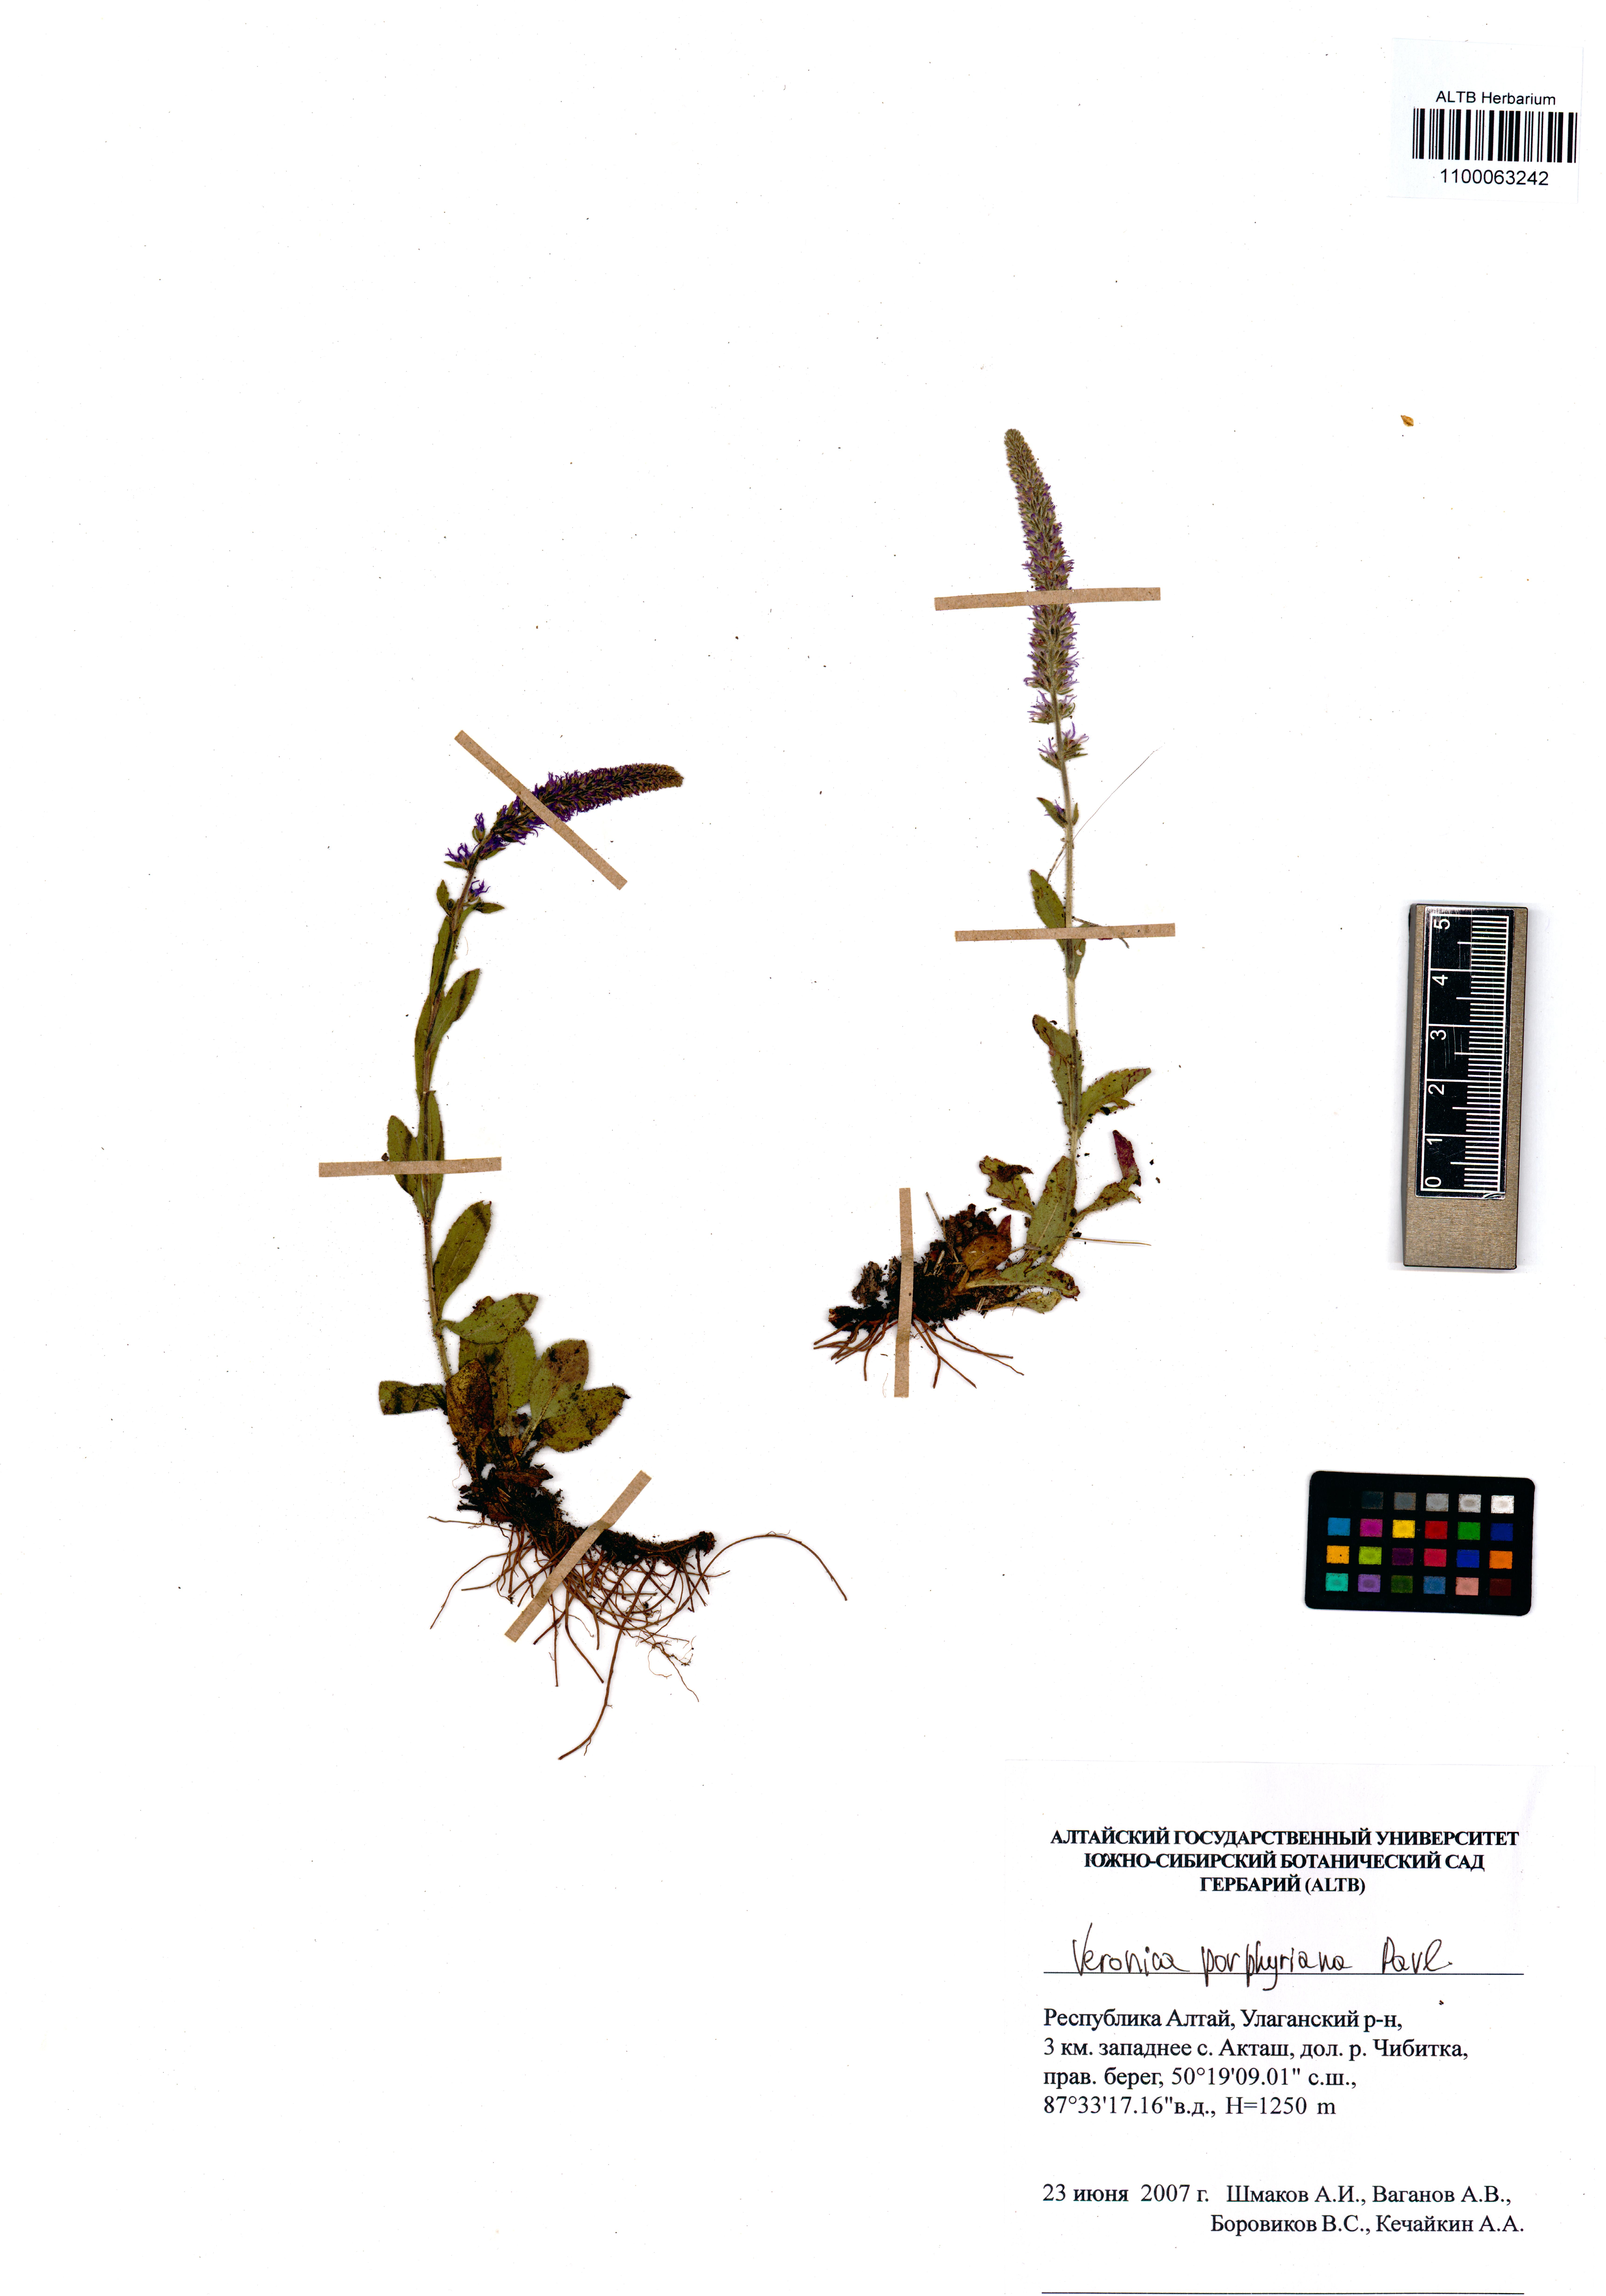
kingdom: Plantae
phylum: Tracheophyta
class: Magnoliopsida
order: Lamiales
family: Plantaginaceae
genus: Veronica
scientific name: Veronica porphyriana
